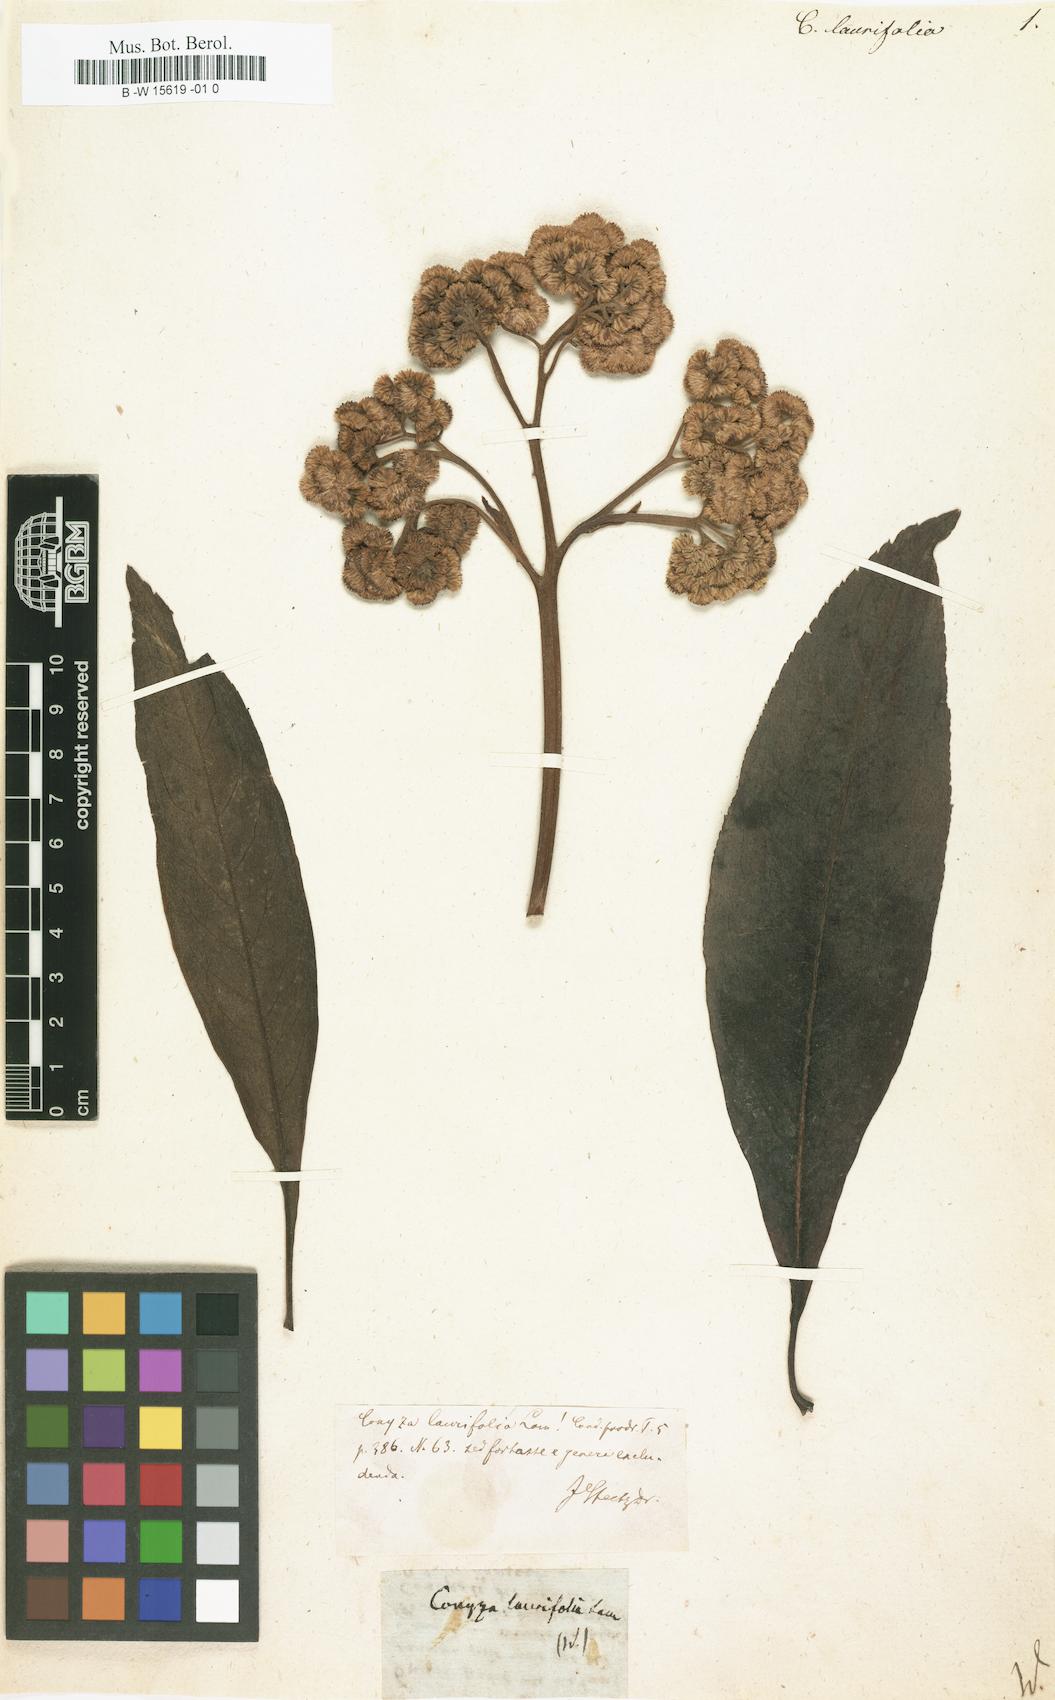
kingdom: Plantae
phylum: Tracheophyta
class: Magnoliopsida
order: Asterales
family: Asteraceae
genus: Psiadia
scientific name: Psiadia laurifolia
